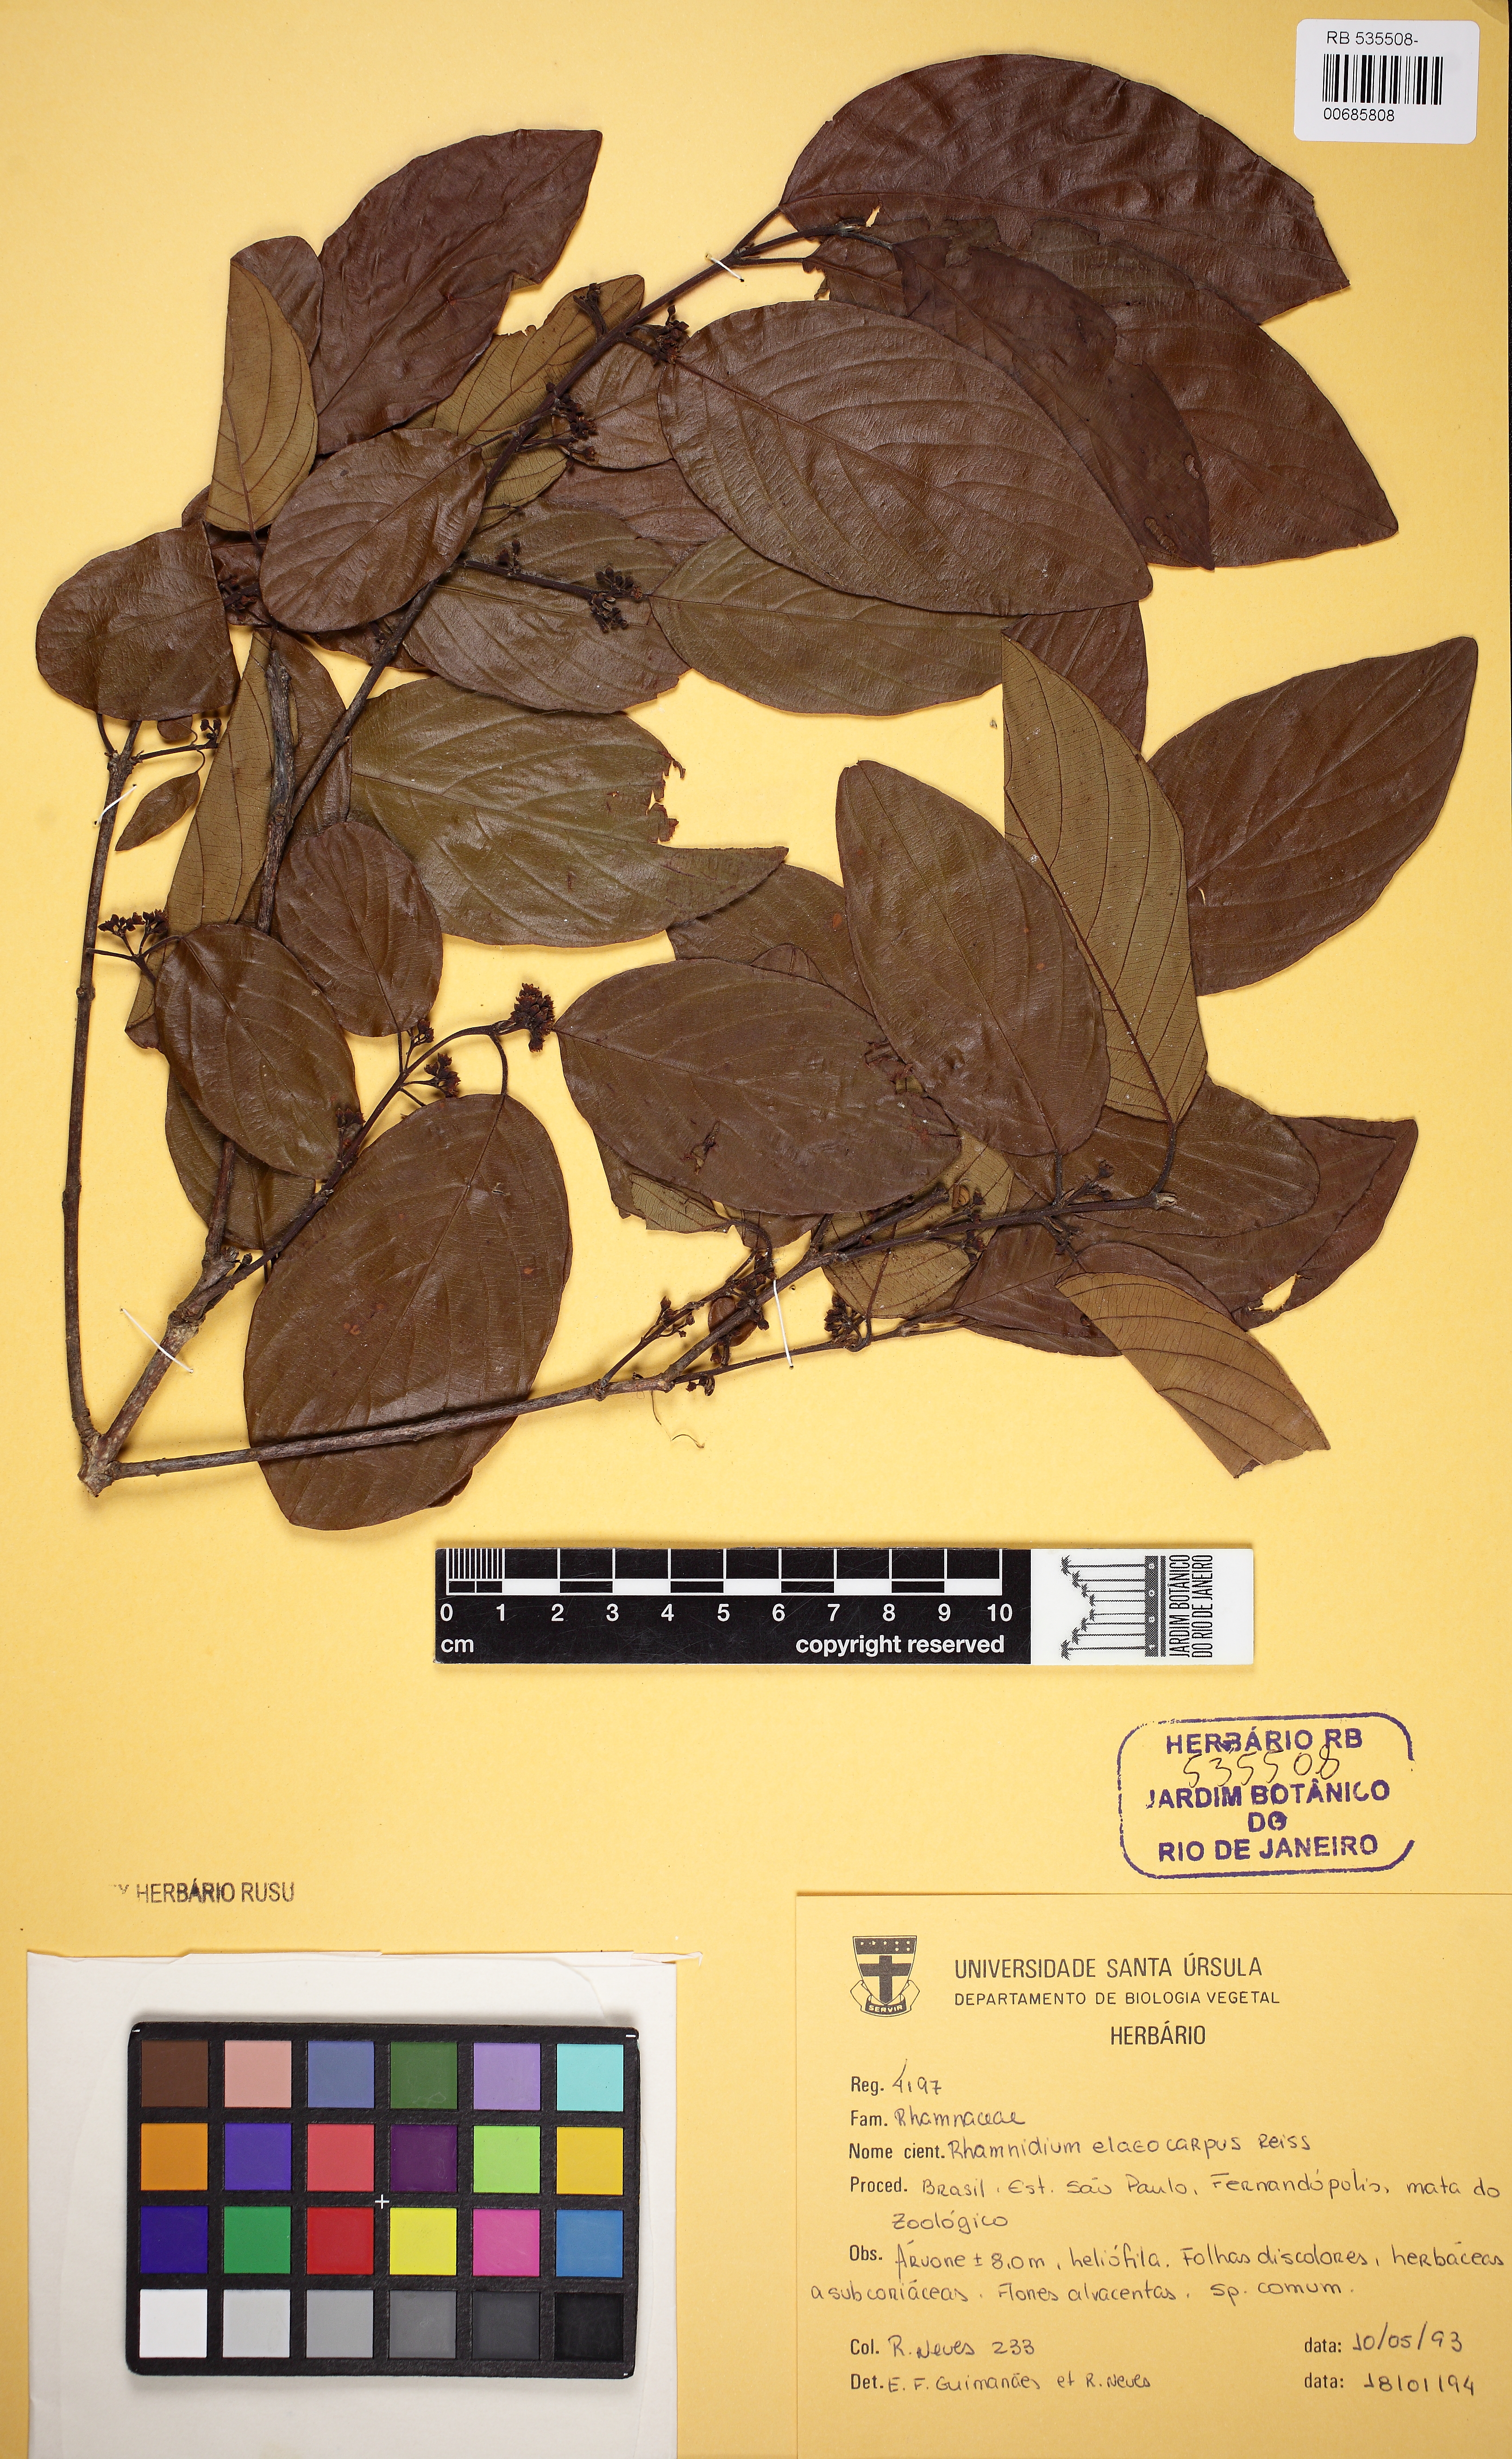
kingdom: Plantae
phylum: Tracheophyta
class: Magnoliopsida
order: Rosales
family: Rhamnaceae
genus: Rhamnidium
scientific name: Rhamnidium elaeocarpum
